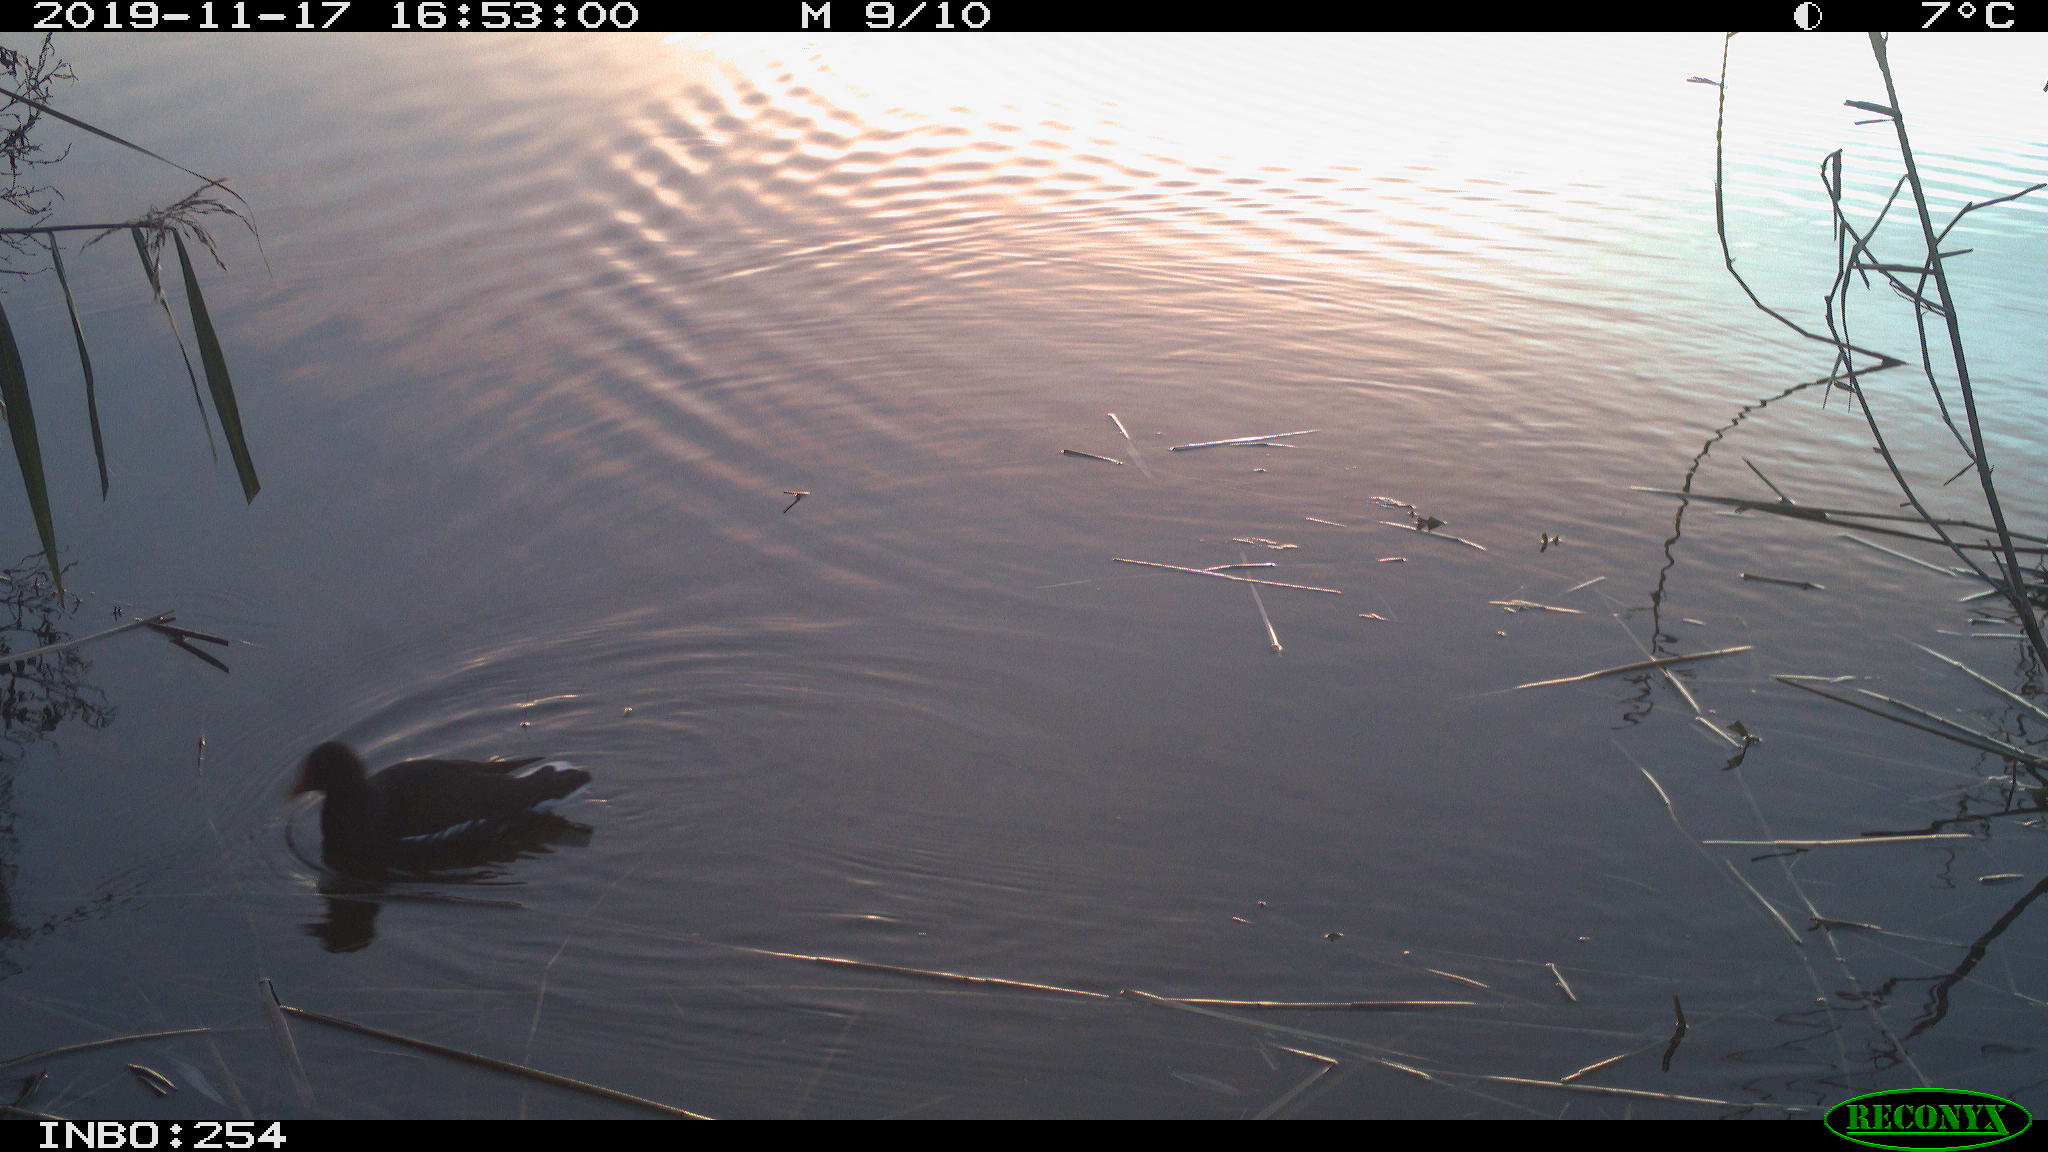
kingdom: Animalia
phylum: Chordata
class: Aves
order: Gruiformes
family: Rallidae
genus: Gallinula
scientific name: Gallinula chloropus
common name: Common moorhen
